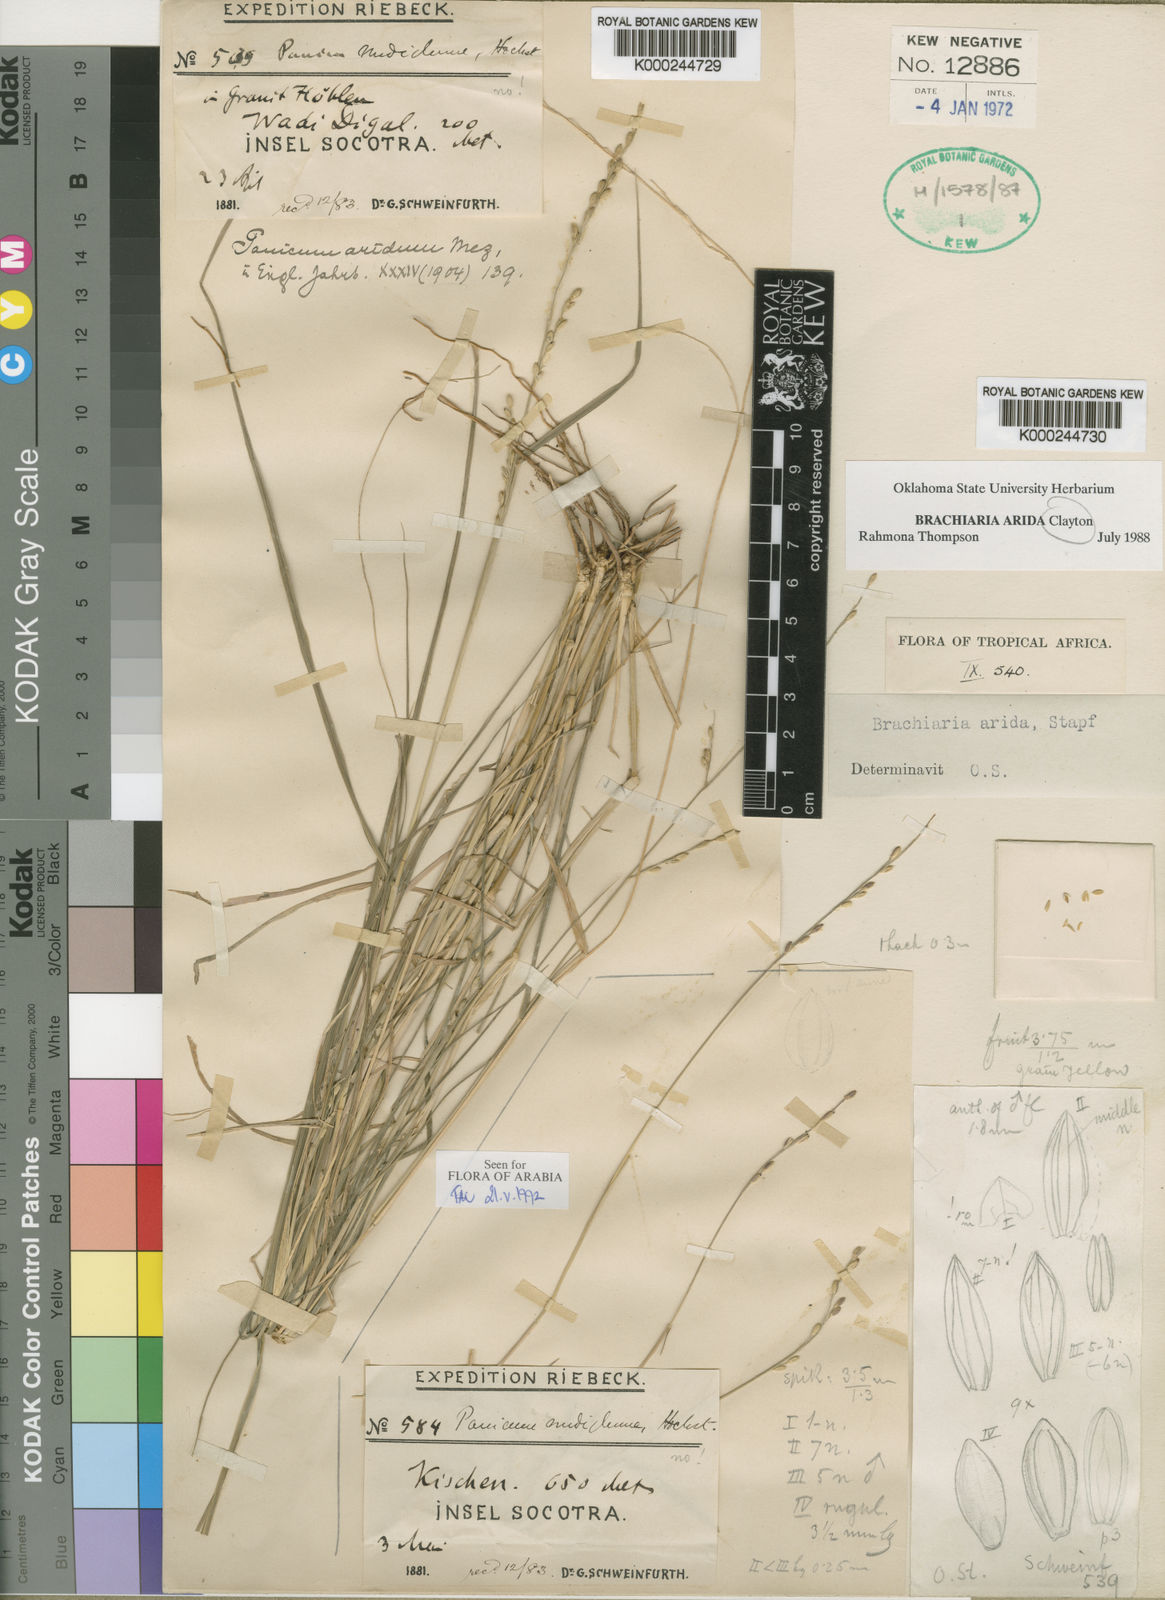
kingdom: Plantae
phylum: Tracheophyta
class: Liliopsida
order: Poales
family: Poaceae
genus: Brachiaria
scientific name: Brachiaria
